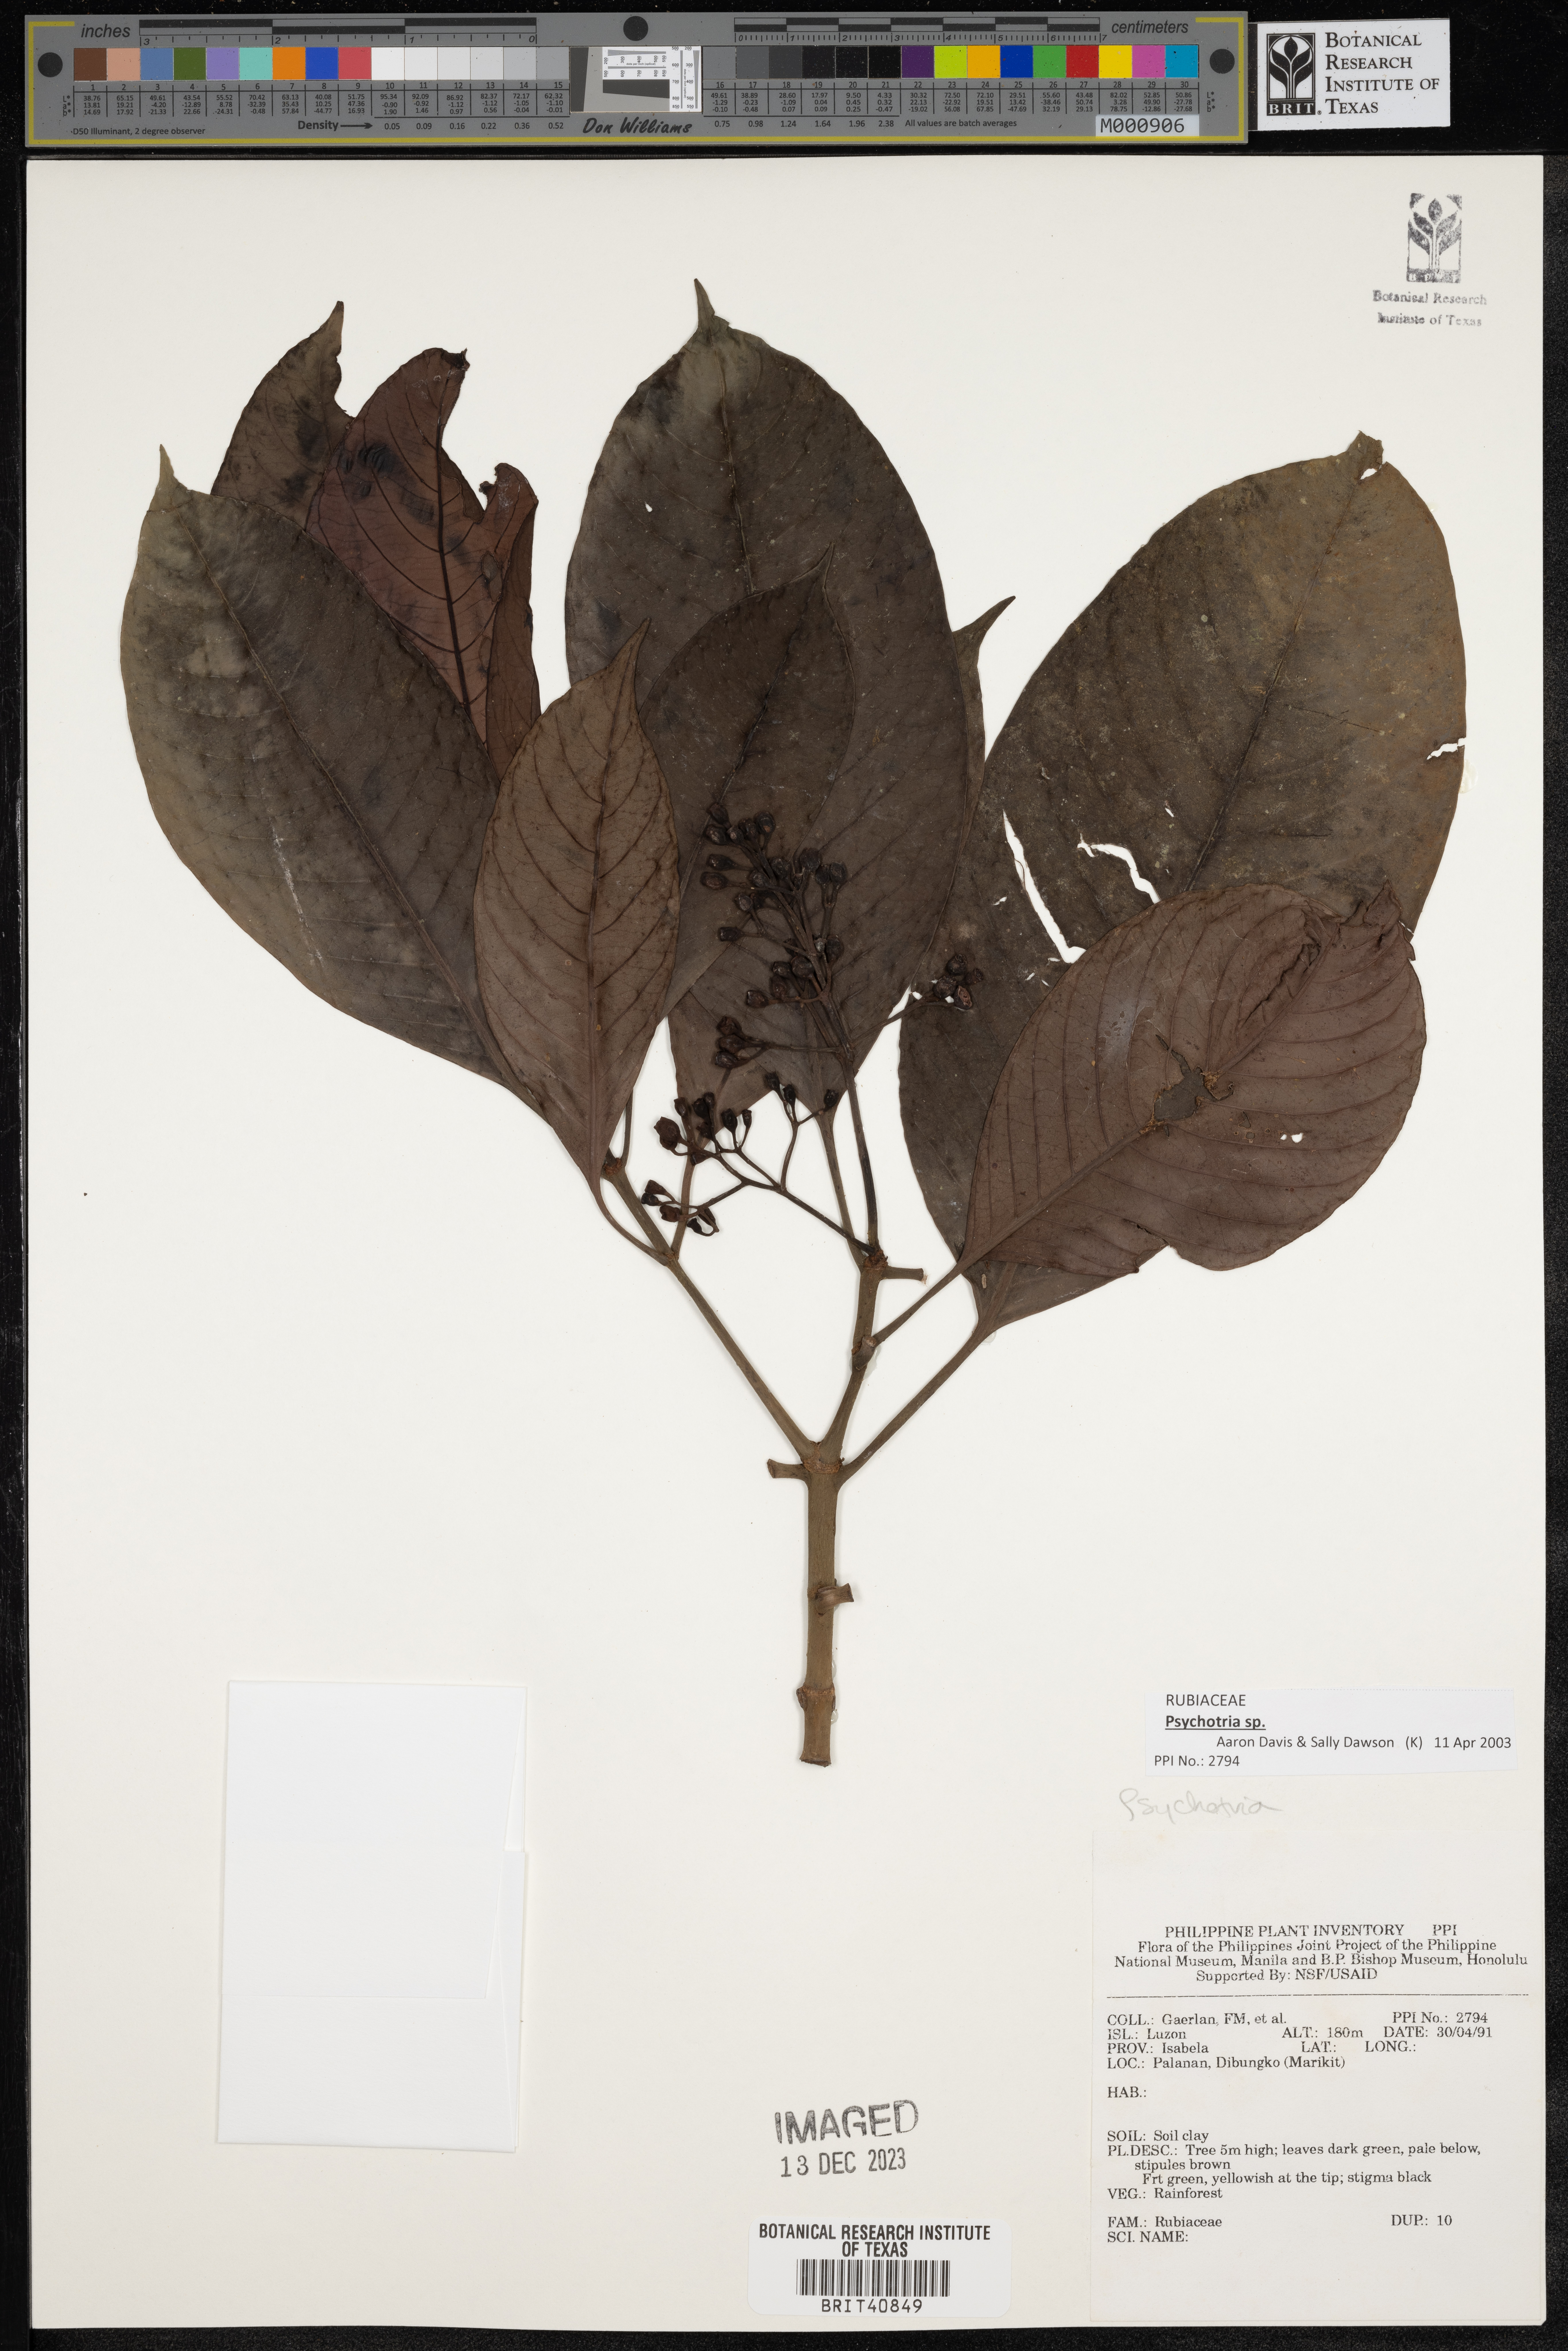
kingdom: Plantae
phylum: Tracheophyta
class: Magnoliopsida
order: Gentianales
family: Rubiaceae
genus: Psychotria
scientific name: Psychotria
